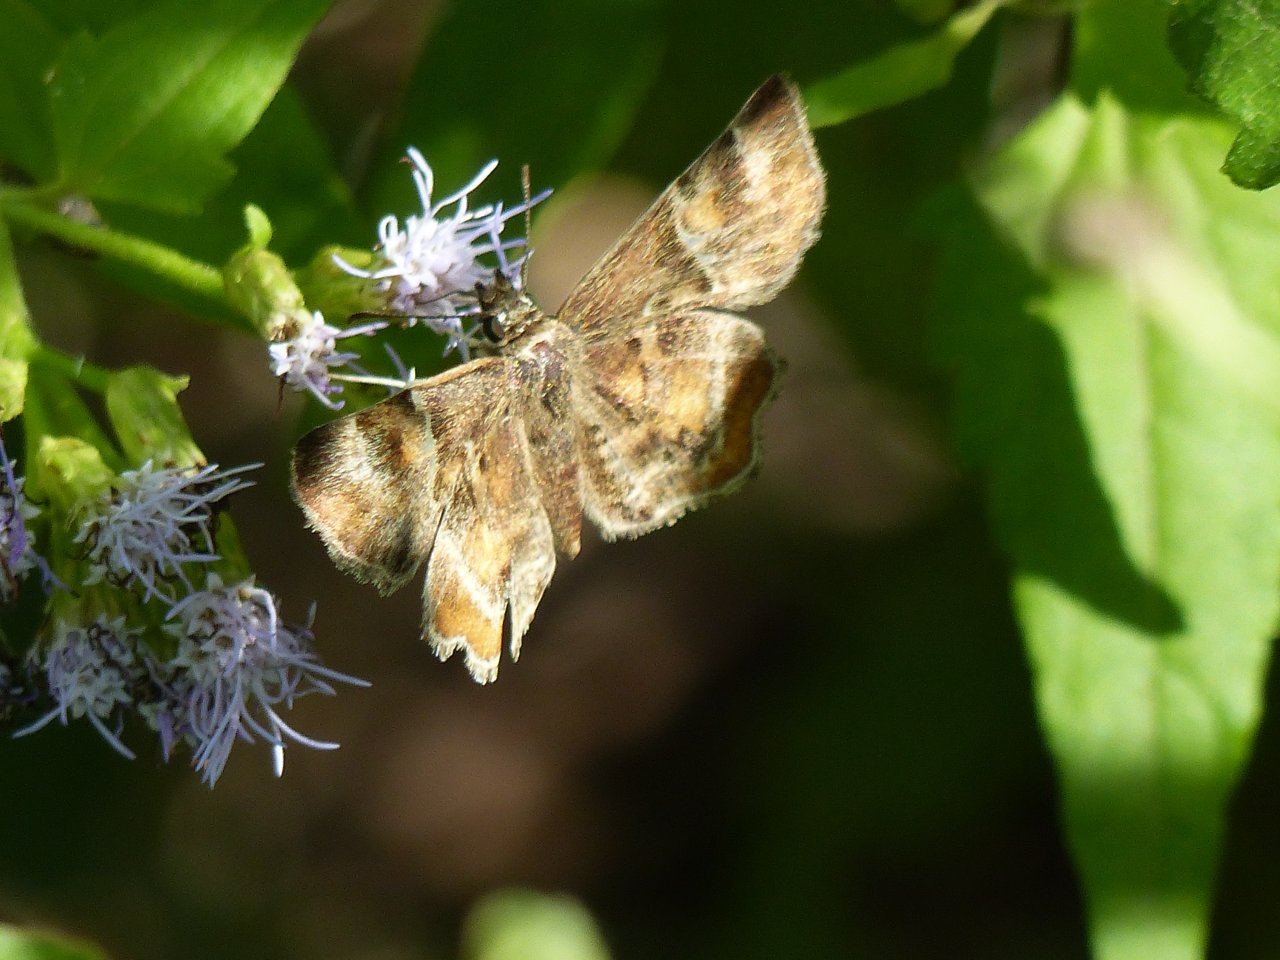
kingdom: Animalia
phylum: Arthropoda
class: Insecta
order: Lepidoptera
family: Hesperiidae
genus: Systasea
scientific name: Systasea pulverulenta
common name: Texas Powdered-Skipper
